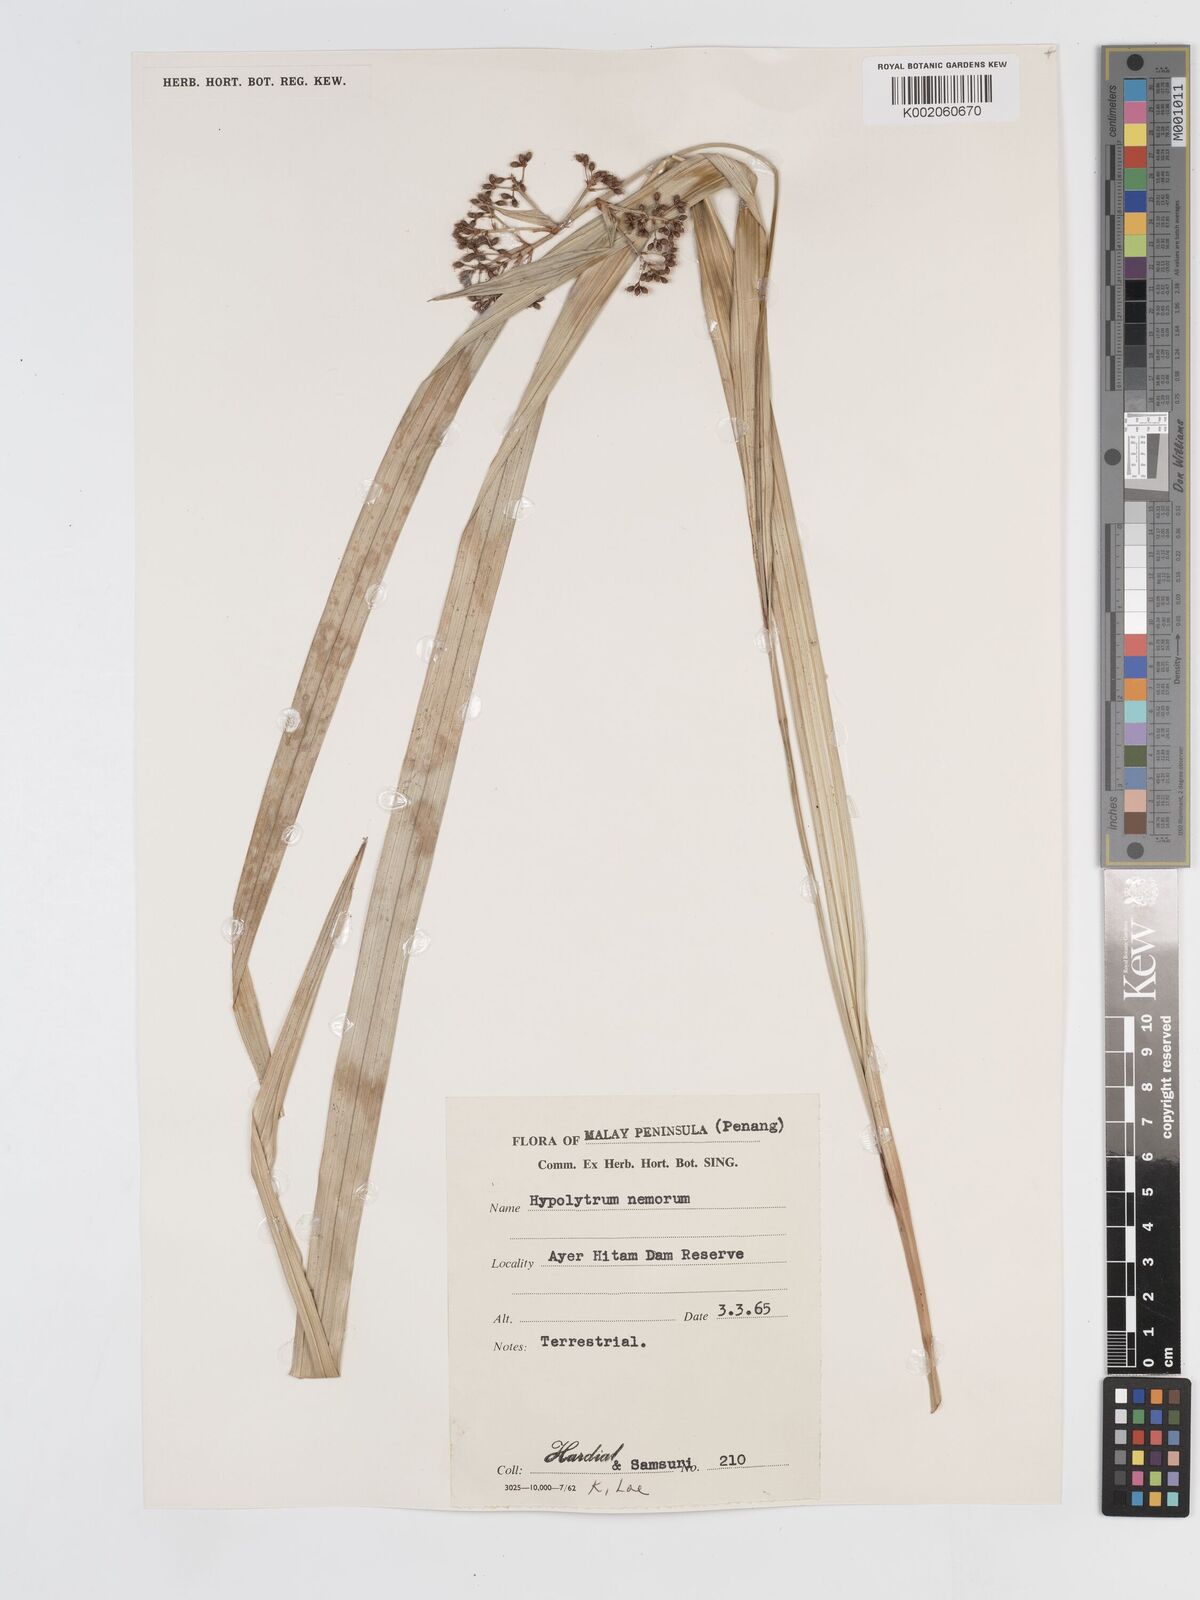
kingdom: Plantae
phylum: Tracheophyta
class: Liliopsida
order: Poales
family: Cyperaceae
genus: Hypolytrum
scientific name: Hypolytrum nemorum
